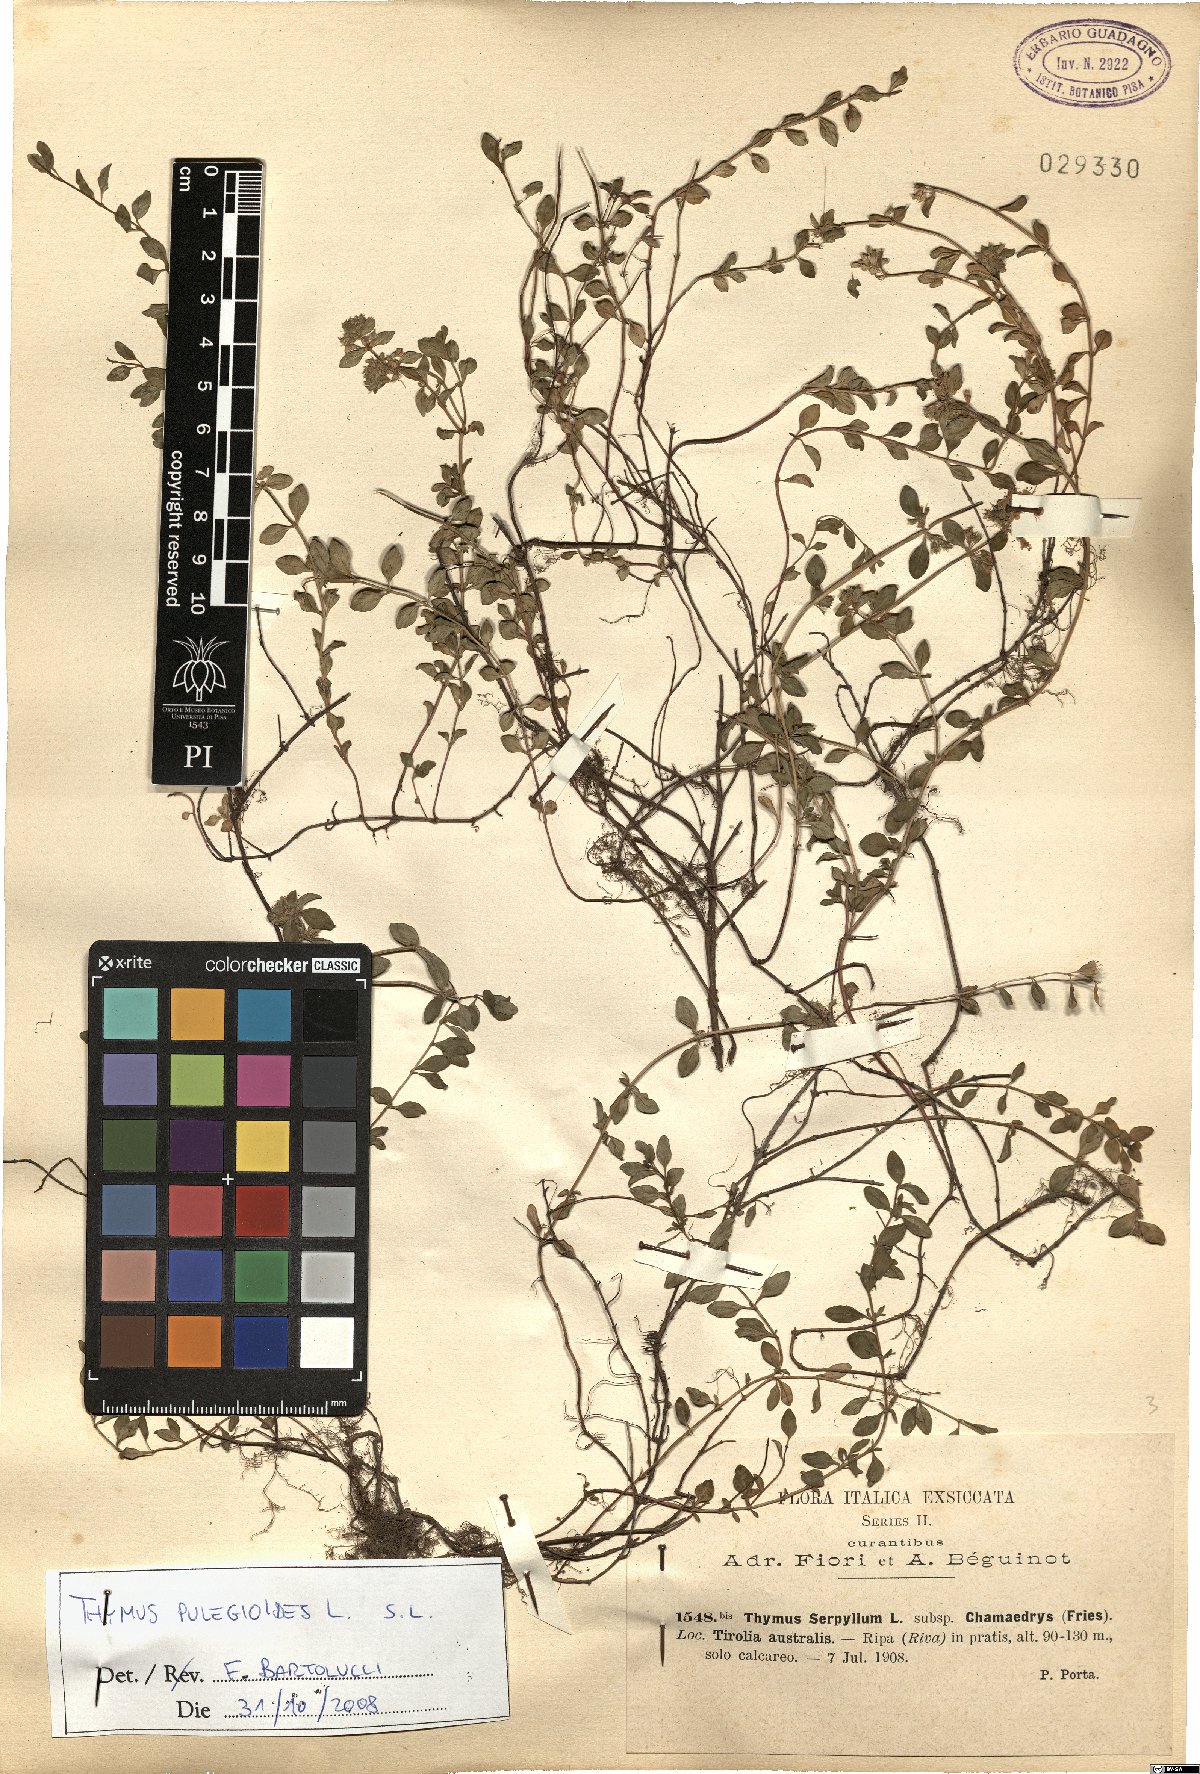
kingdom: Plantae
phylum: Tracheophyta
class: Magnoliopsida
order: Lamiales
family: Lamiaceae
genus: Thymus
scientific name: Thymus pulegioides
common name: Large thyme
